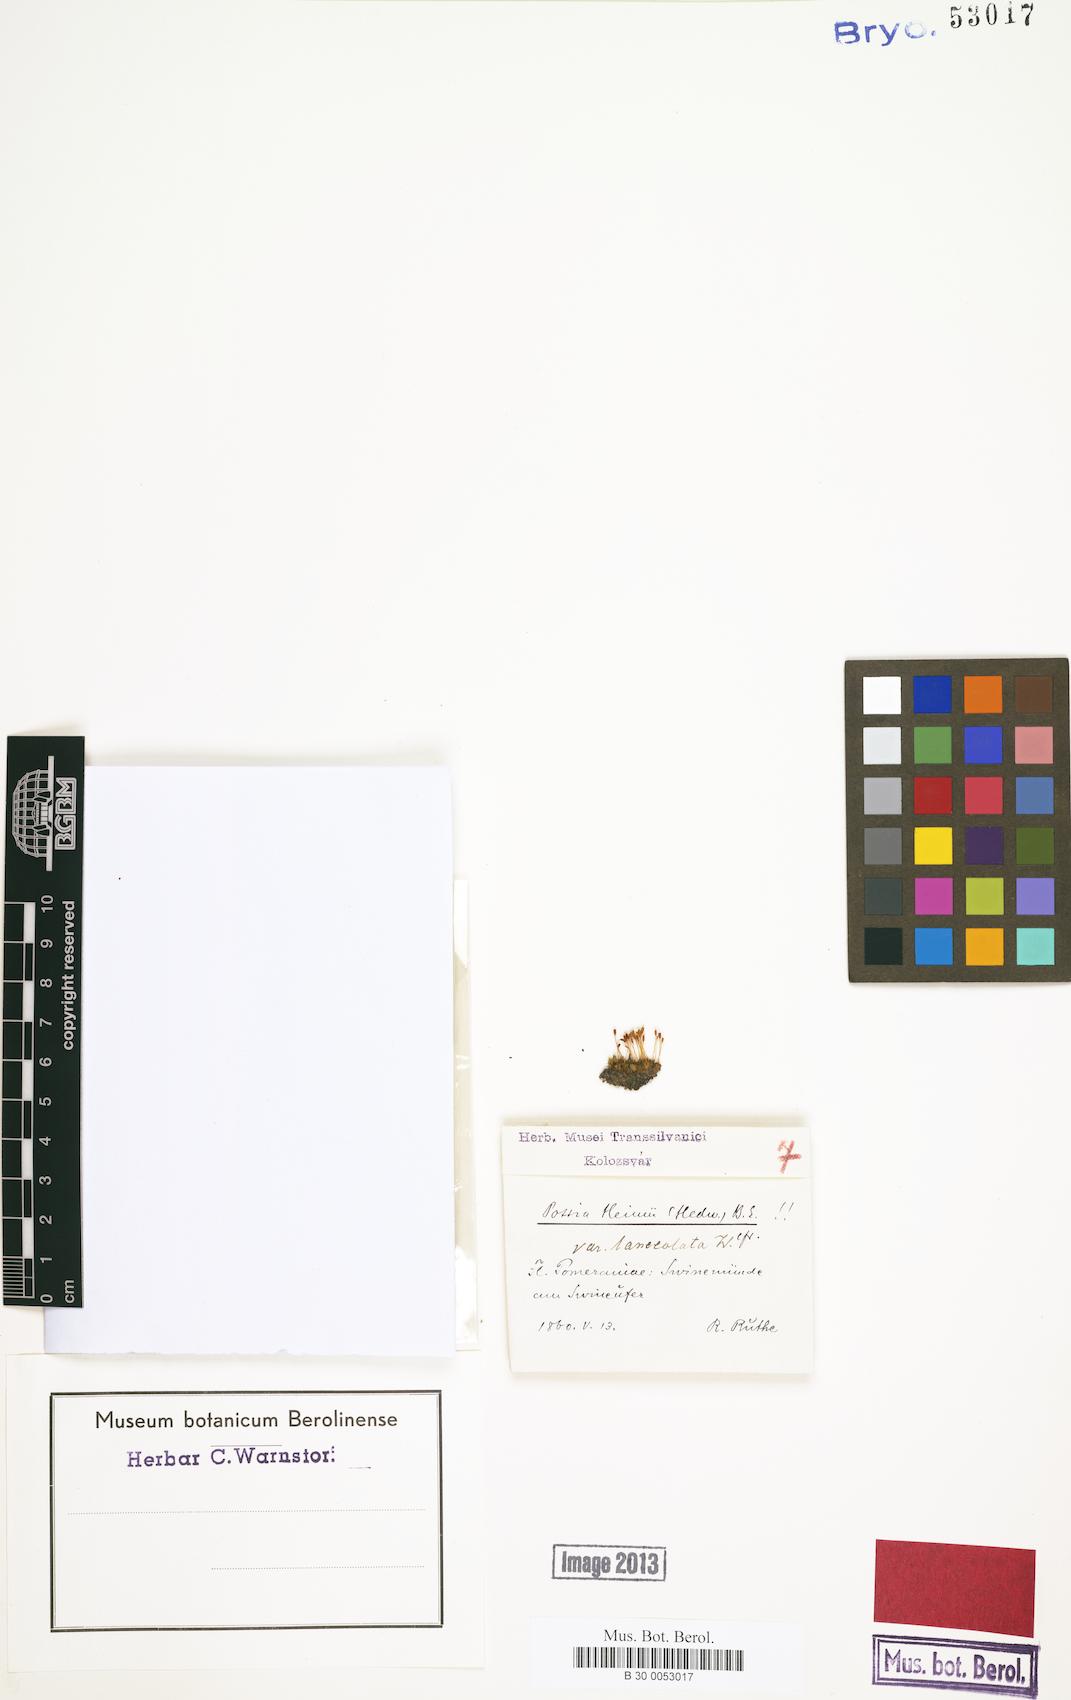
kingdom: Plantae
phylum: Bryophyta
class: Bryopsida
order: Pottiales
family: Pottiaceae
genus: Hennediella
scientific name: Hennediella heimii
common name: Heim's pottia
